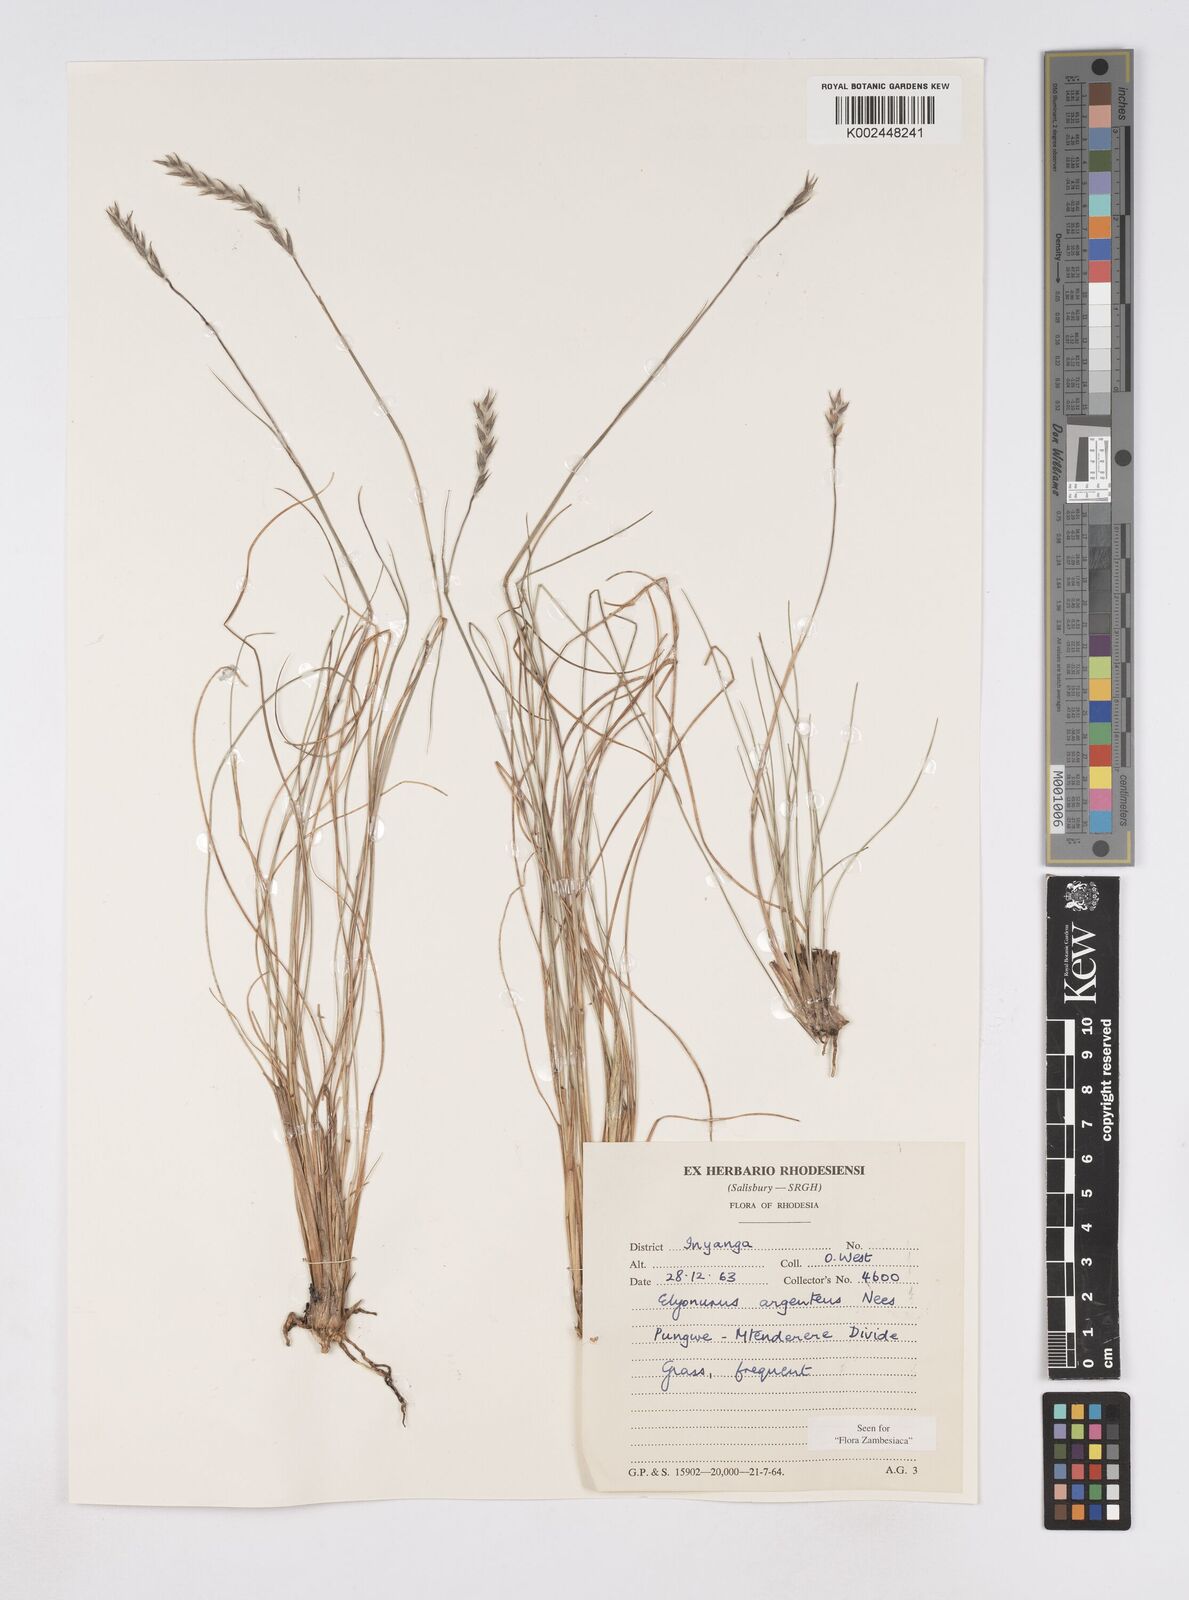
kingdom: Plantae
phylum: Tracheophyta
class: Liliopsida
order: Poales
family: Poaceae
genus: Elionurus
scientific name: Elionurus muticus
